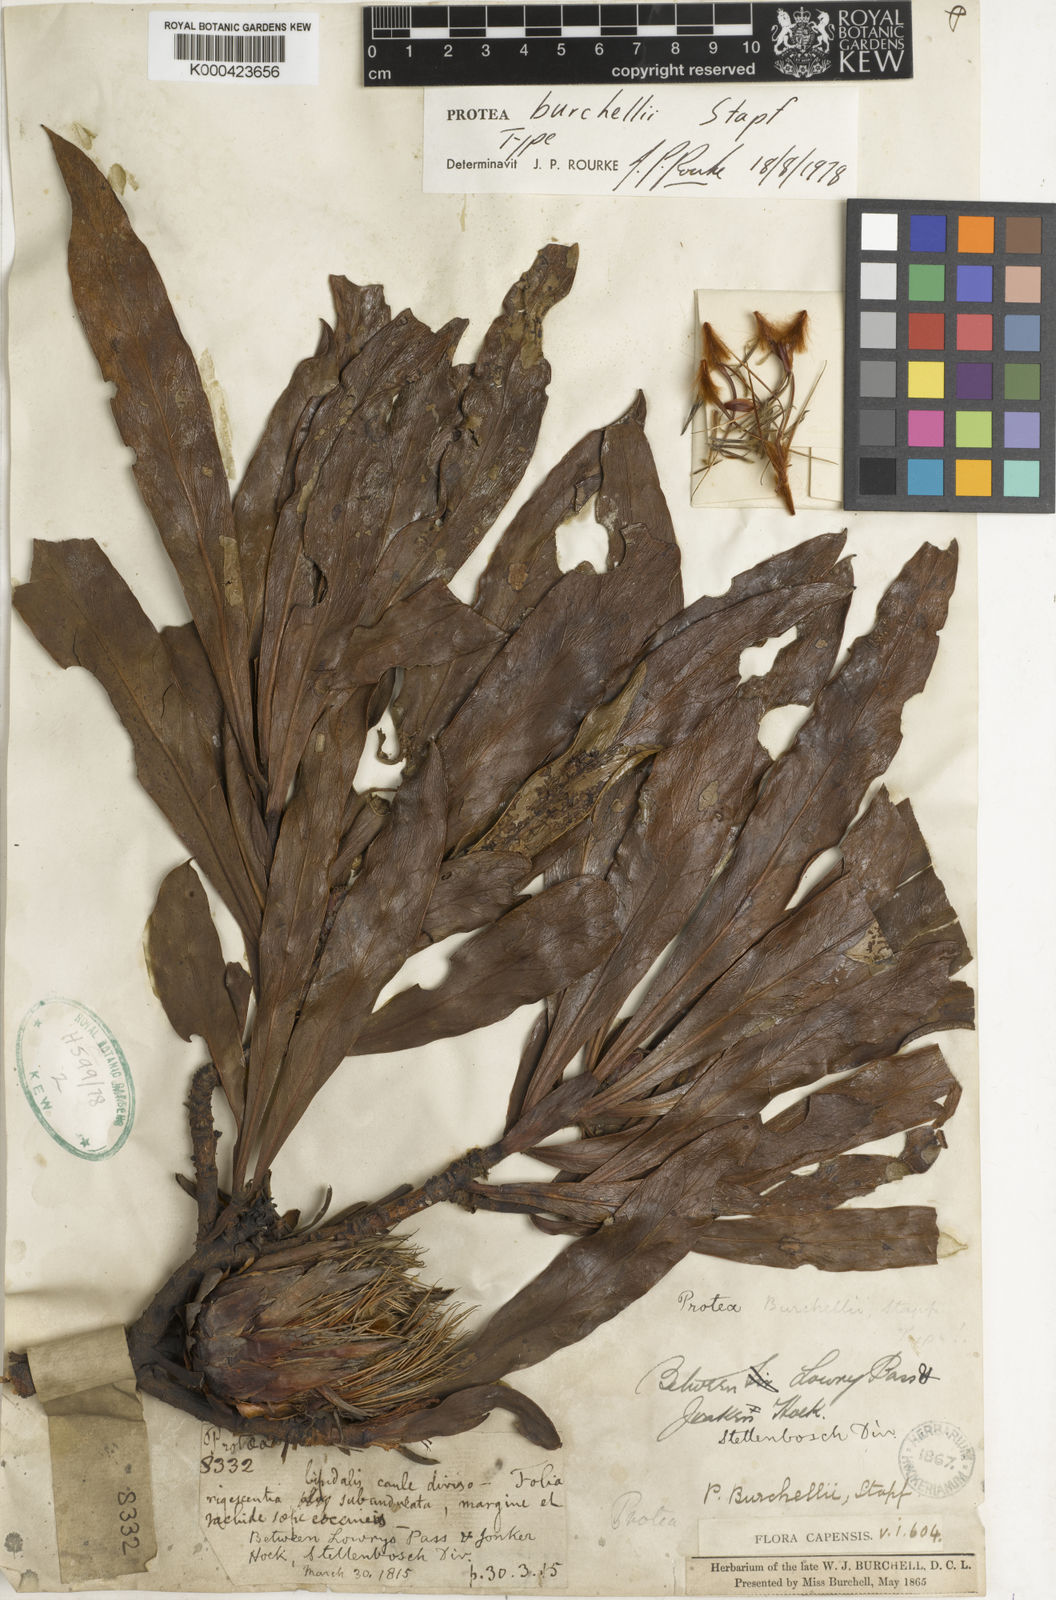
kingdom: Plantae
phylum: Tracheophyta
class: Magnoliopsida
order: Proteales
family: Proteaceae
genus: Protea
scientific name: Protea burchellii
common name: Burchell's sugarbush
